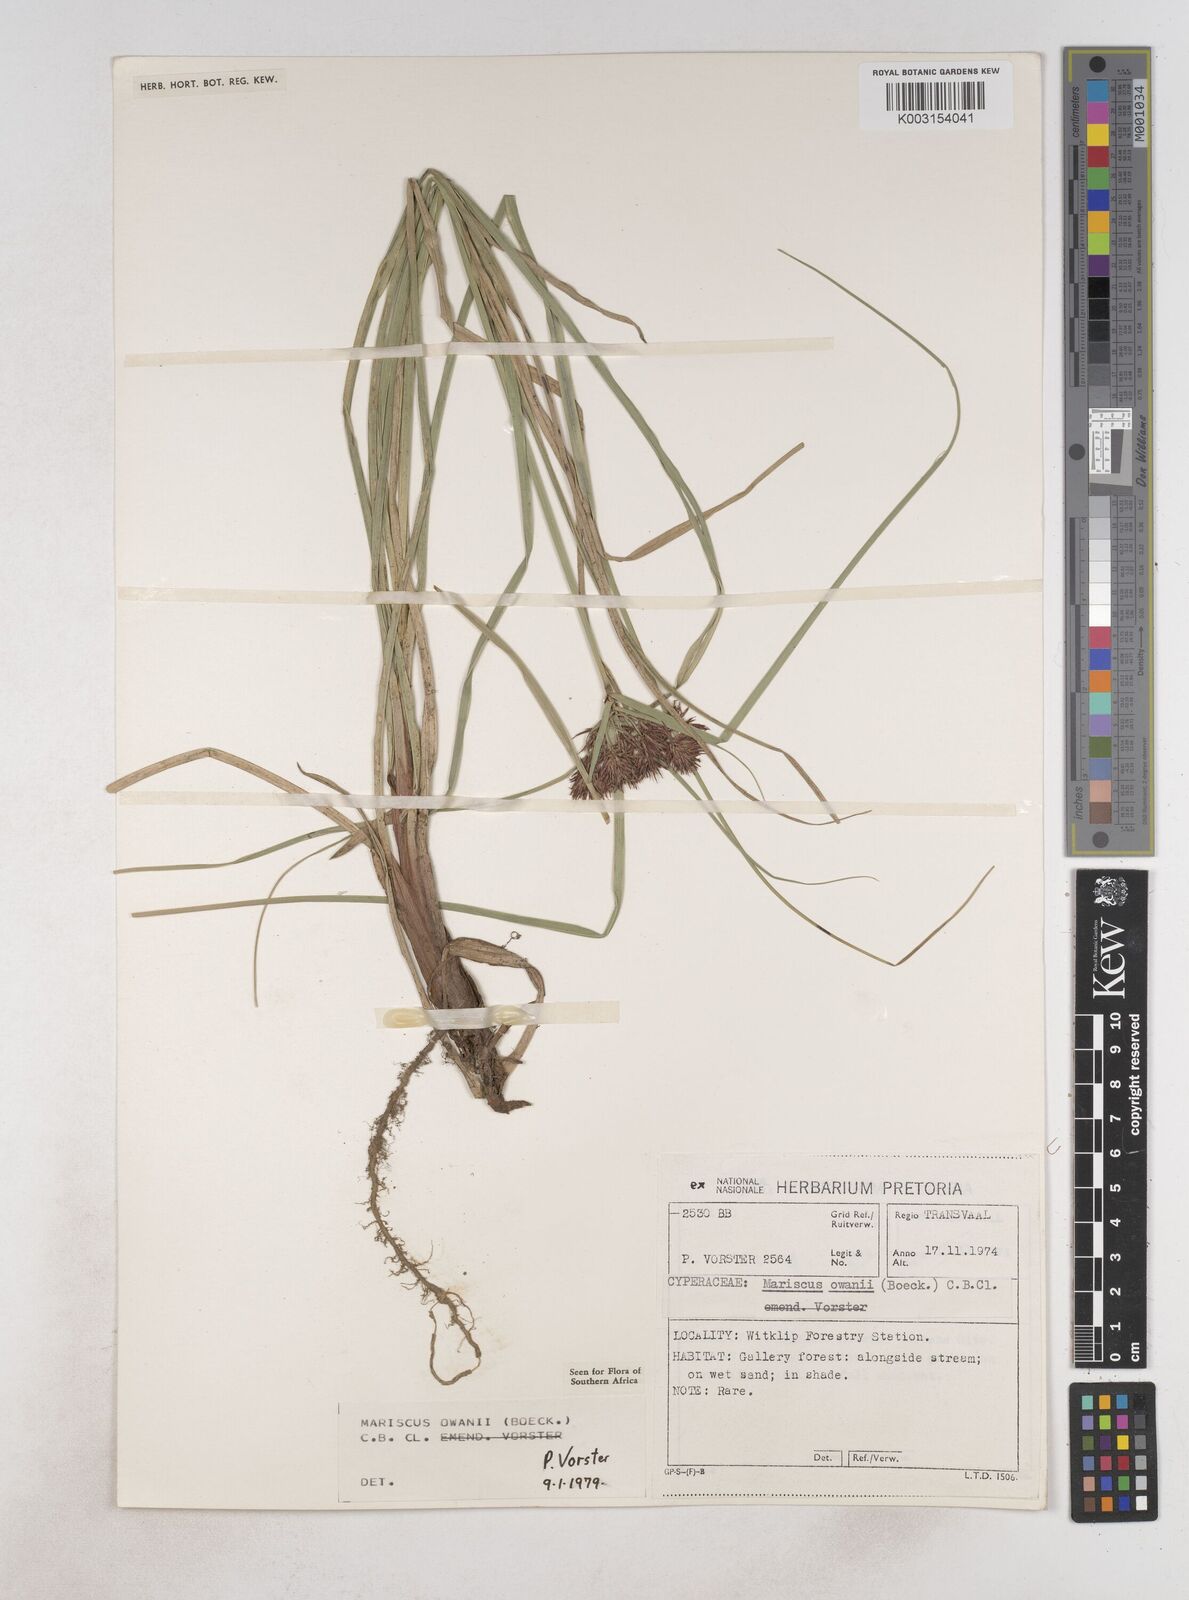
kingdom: Plantae
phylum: Tracheophyta
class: Liliopsida
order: Poales
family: Cyperaceae
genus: Cyperus
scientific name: Cyperus owanii
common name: Owan's flatsedge
